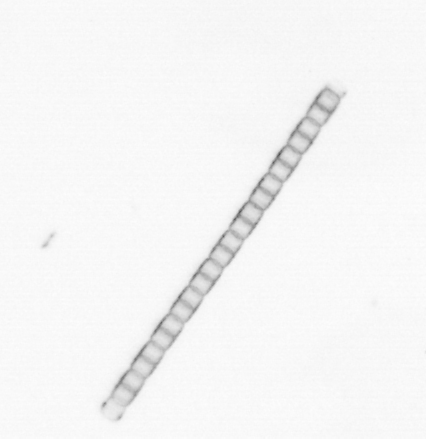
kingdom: Chromista
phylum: Ochrophyta
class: Bacillariophyceae
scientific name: Bacillariophyceae
